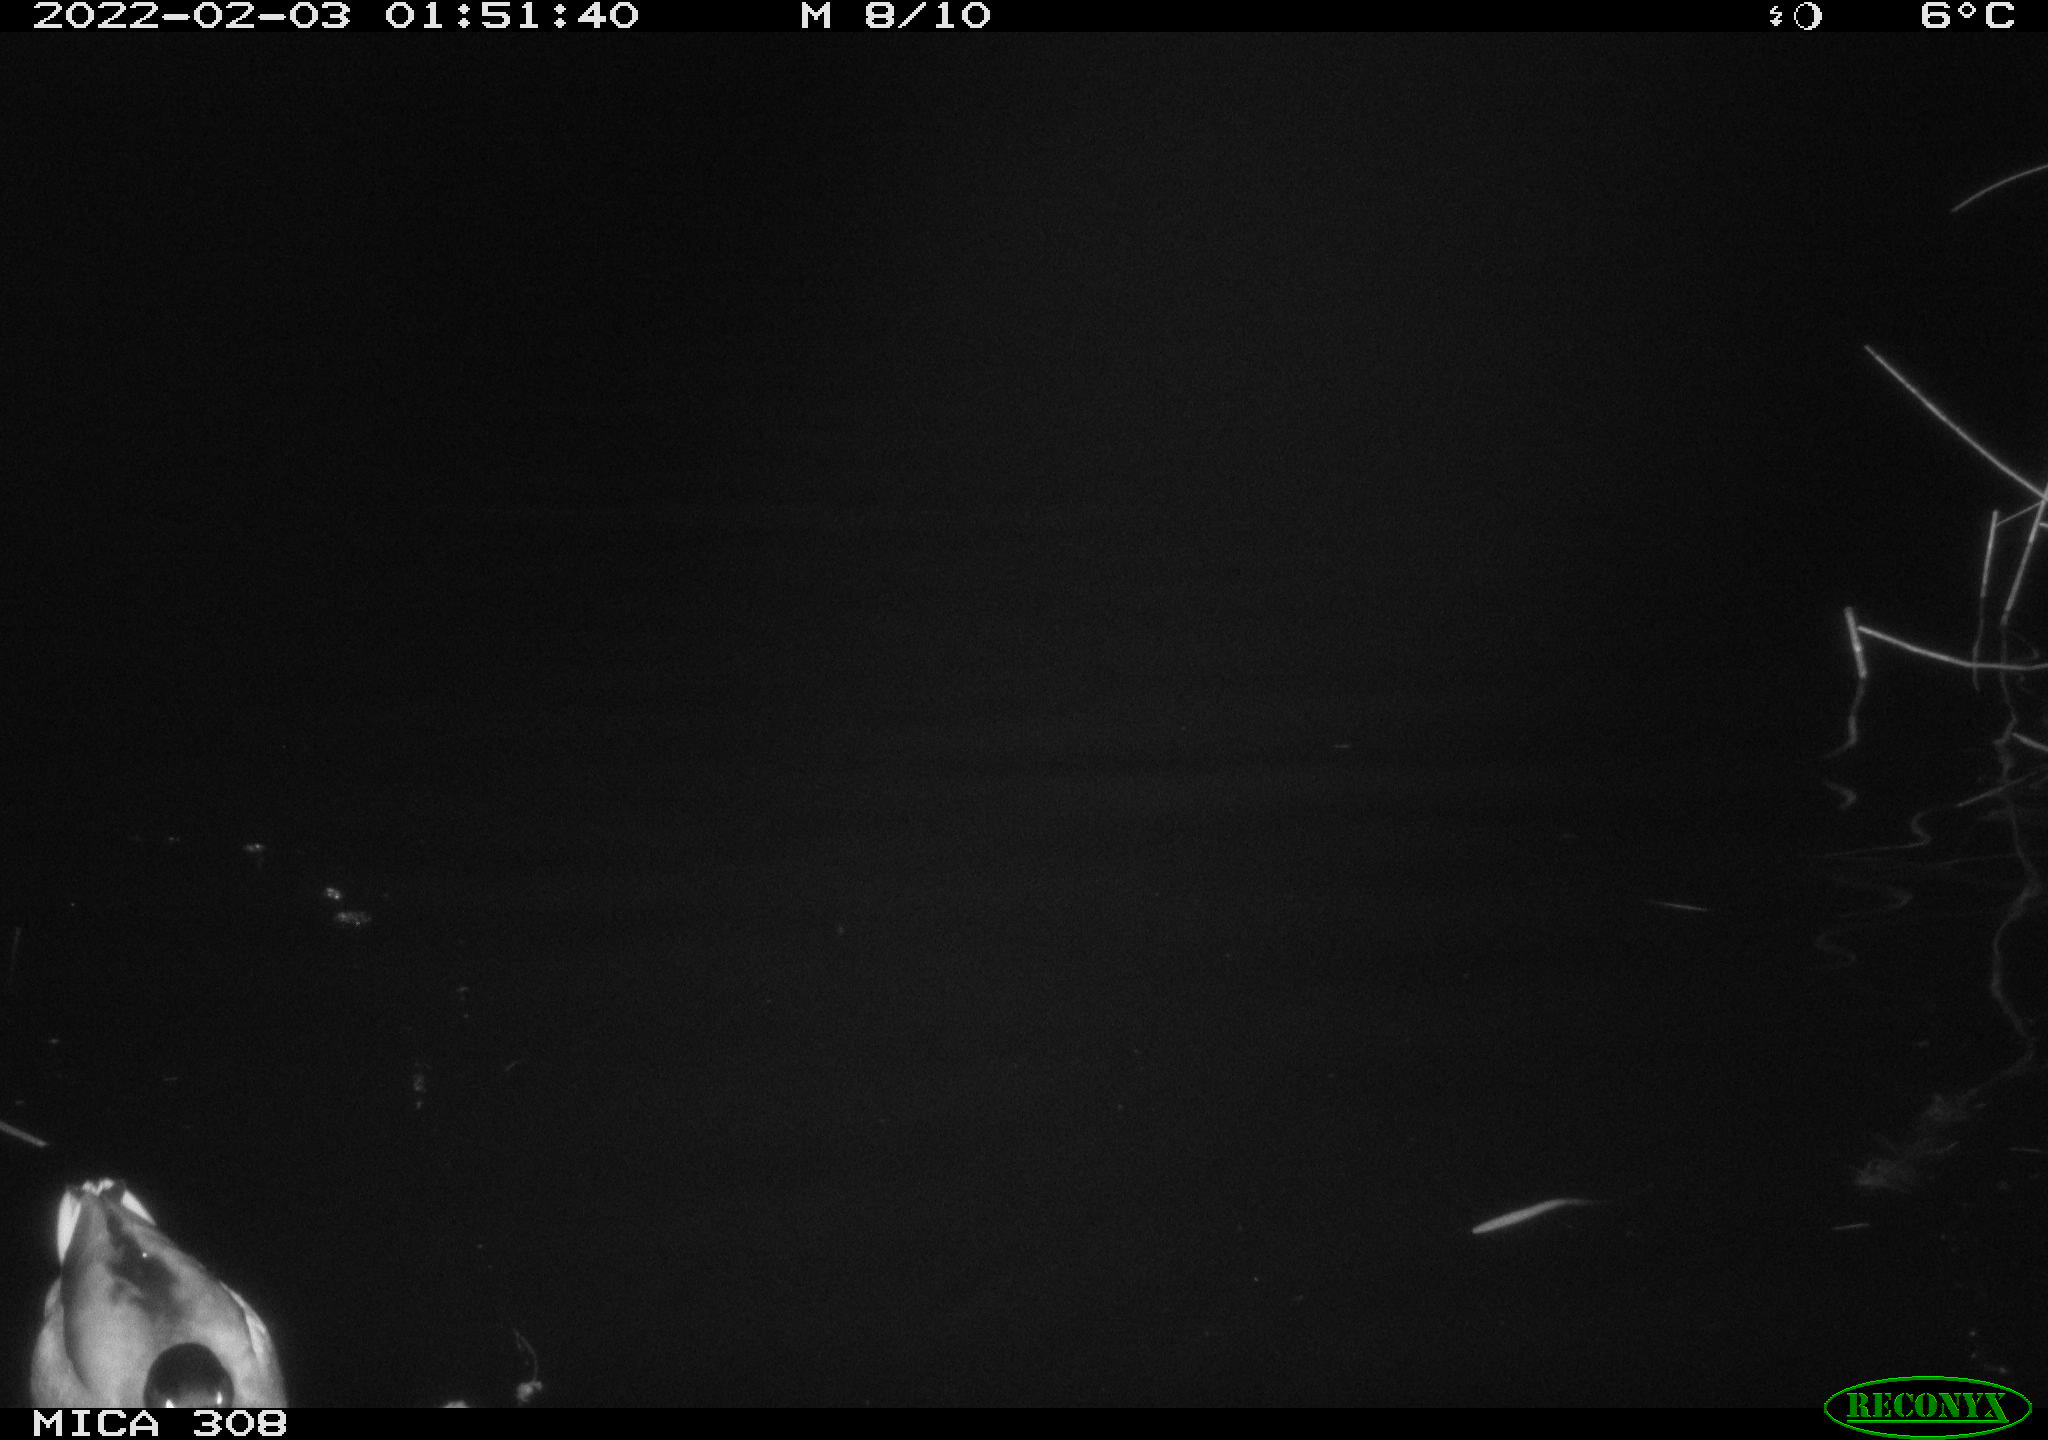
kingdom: Animalia
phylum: Chordata
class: Aves
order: Anseriformes
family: Anatidae
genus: Anas
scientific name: Anas
